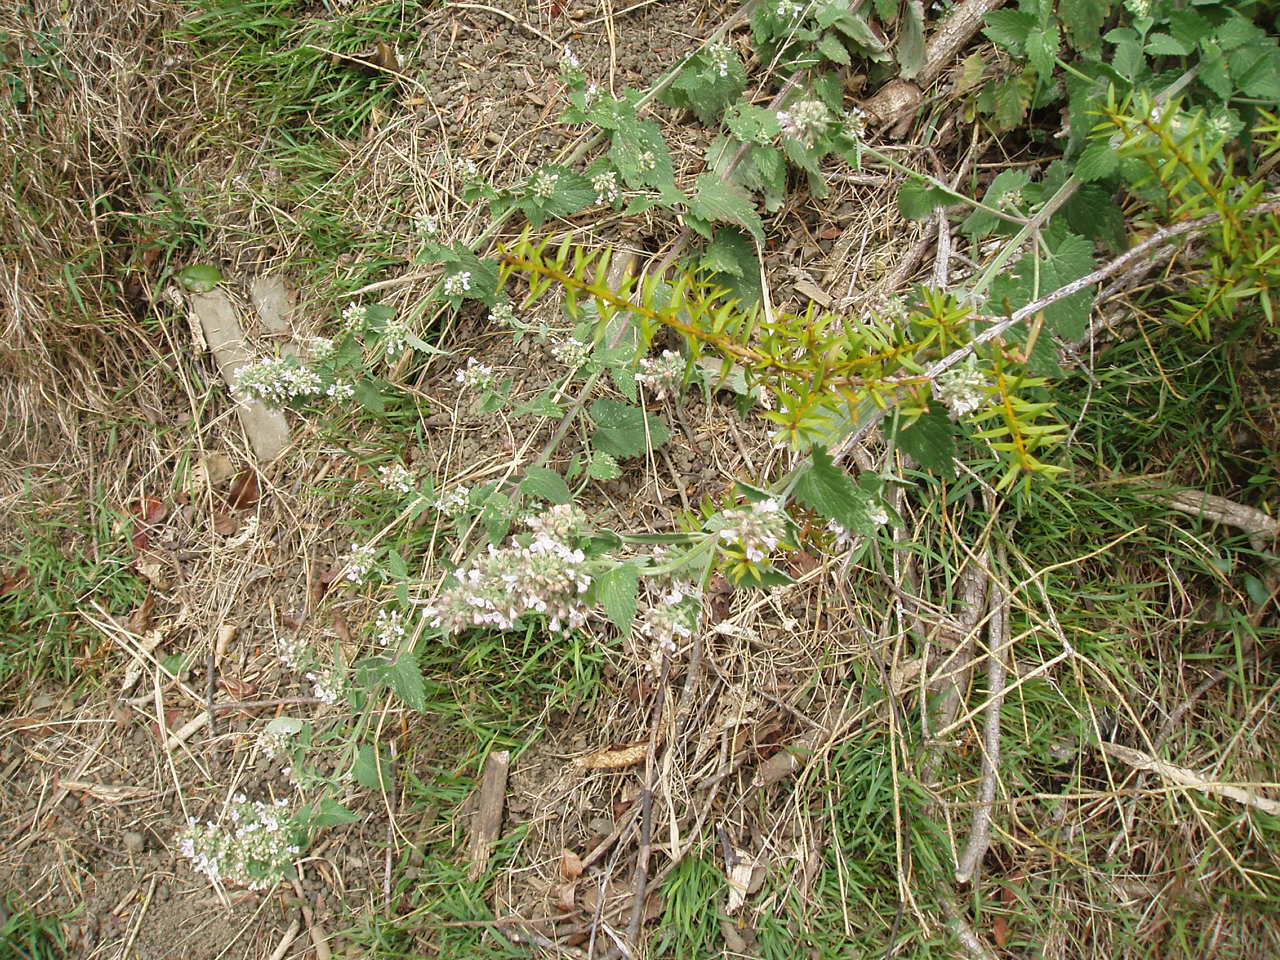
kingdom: Plantae
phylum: Tracheophyta
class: Magnoliopsida
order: Lamiales
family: Lamiaceae
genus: Nepeta
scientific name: Nepeta cataria
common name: Catnip
